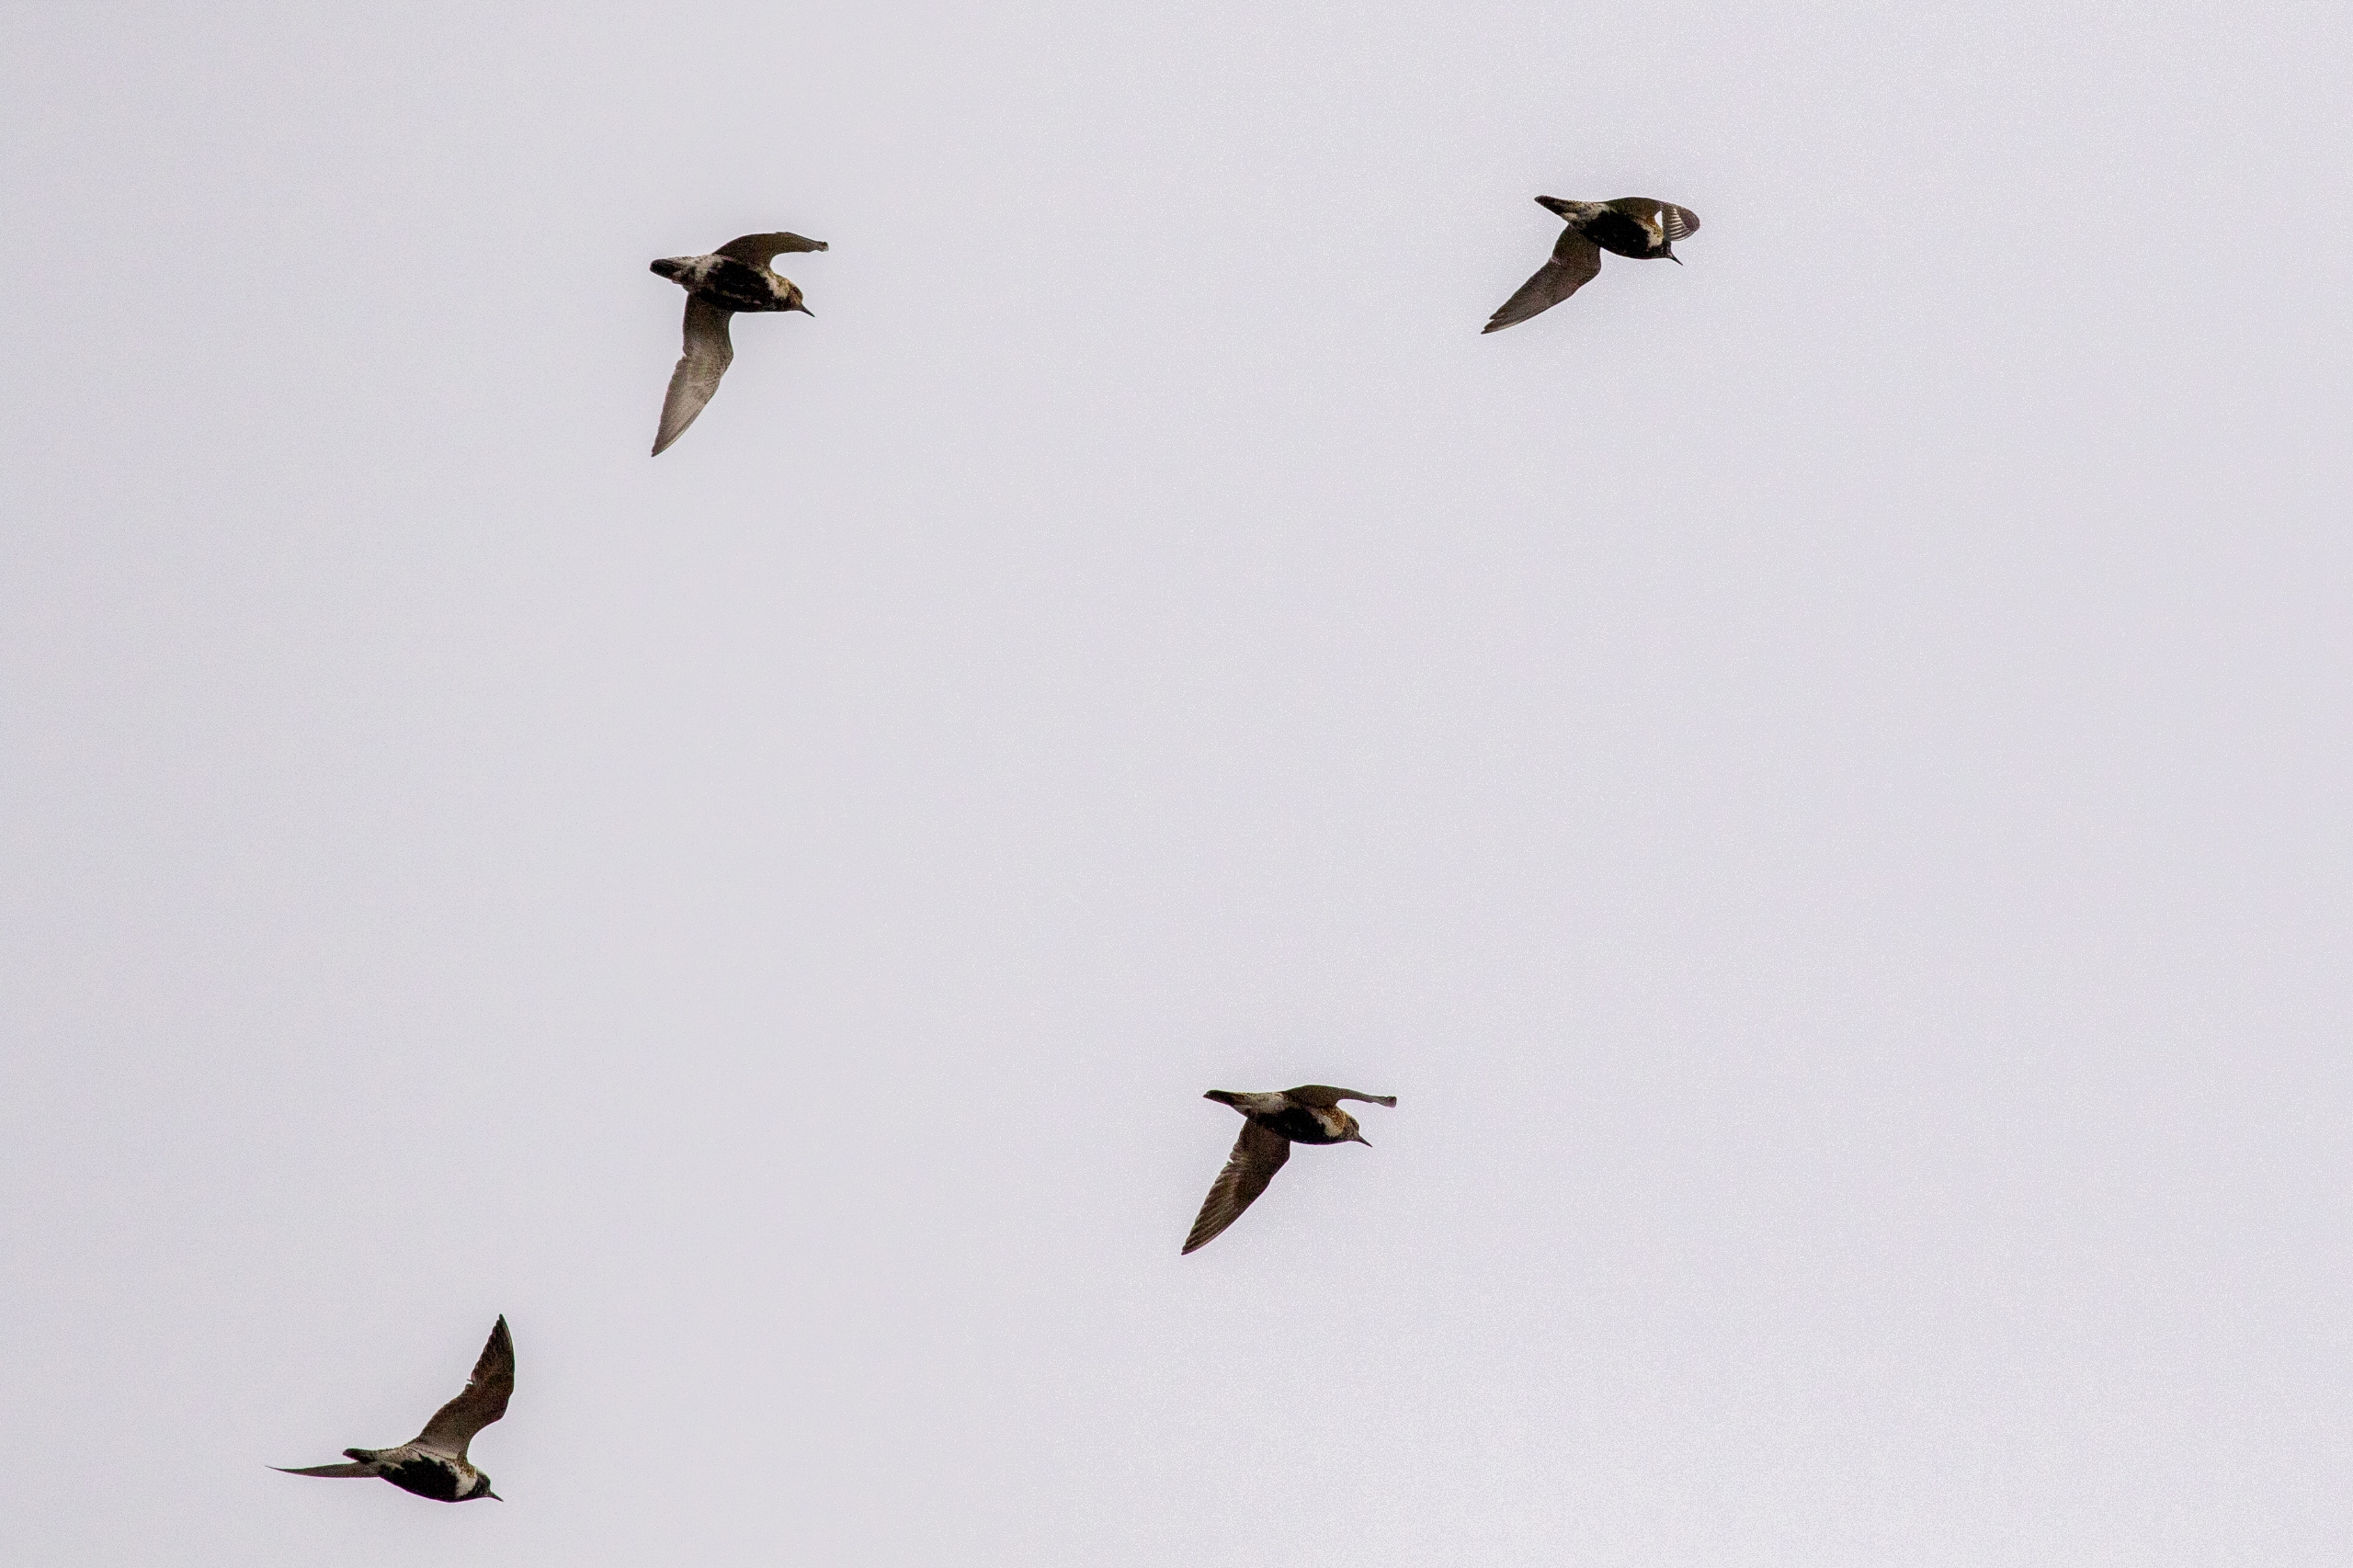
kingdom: Animalia
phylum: Chordata
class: Aves
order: Charadriiformes
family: Charadriidae
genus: Pluvialis
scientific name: Pluvialis apricaria
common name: Hjejle
